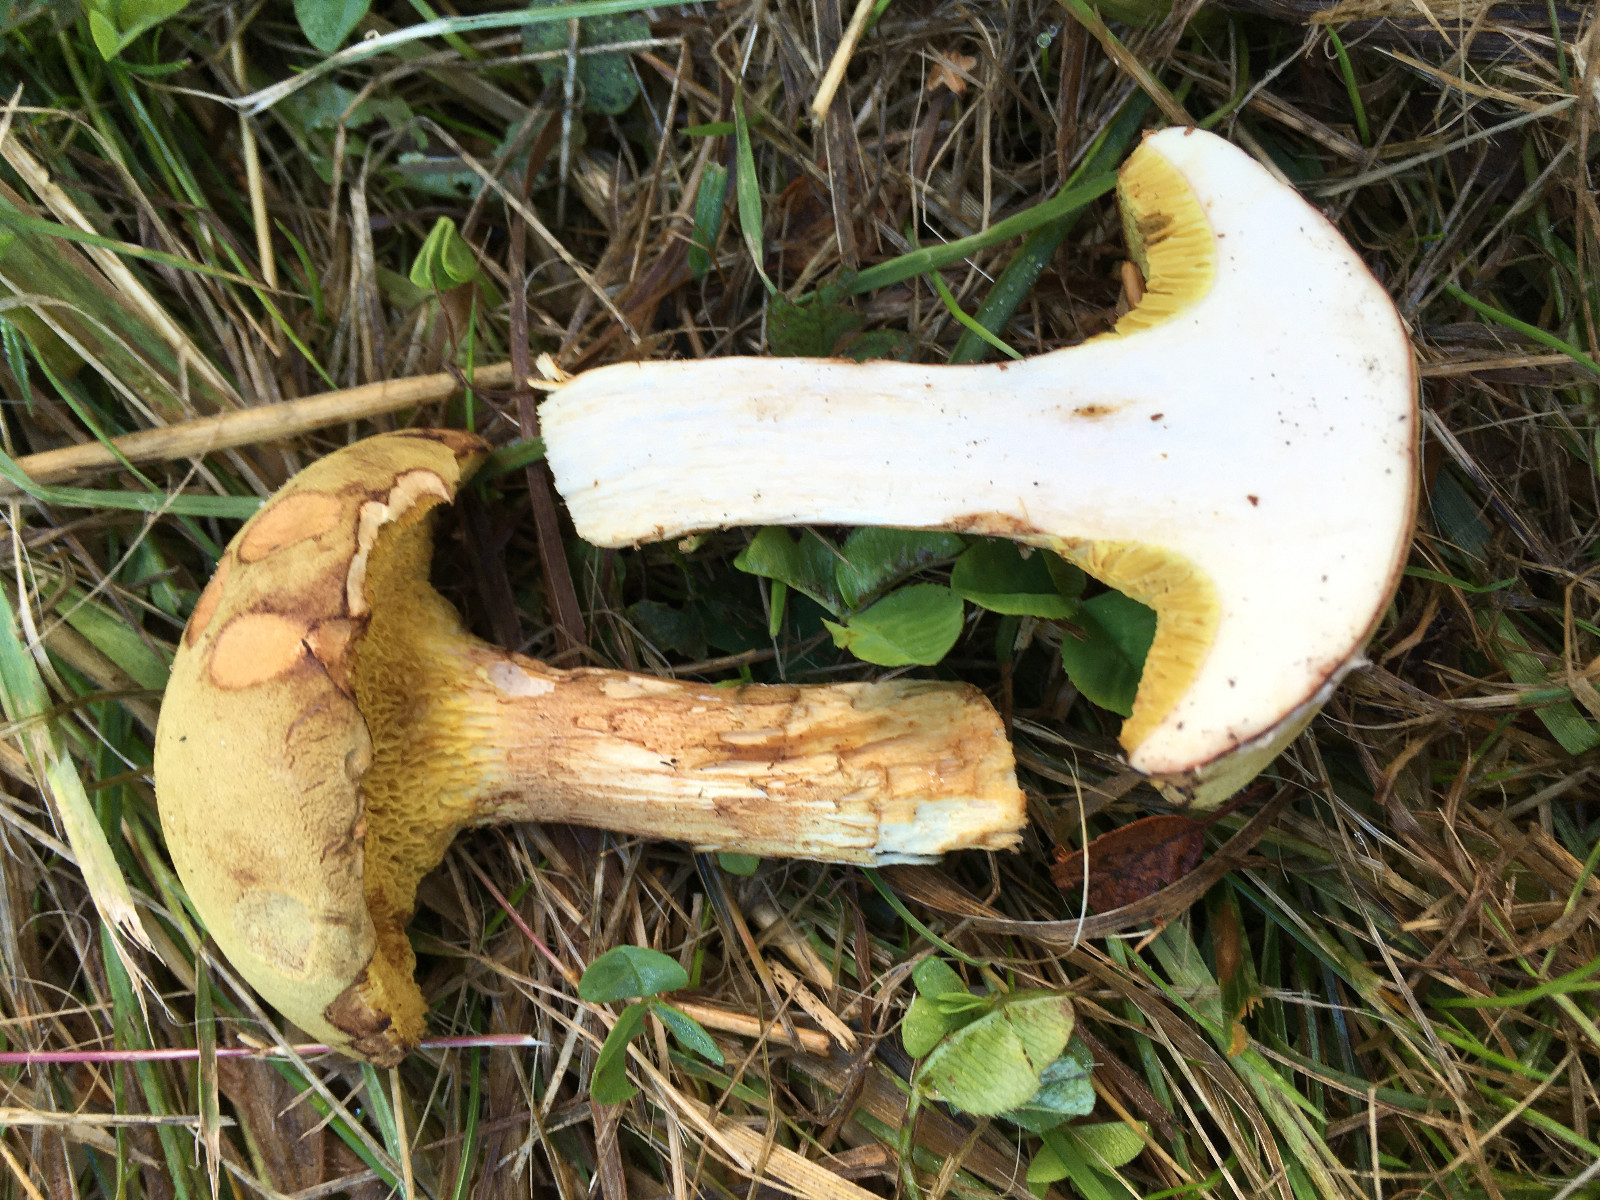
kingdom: Fungi
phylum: Basidiomycota
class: Agaricomycetes
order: Boletales
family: Boletaceae
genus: Xerocomus
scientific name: Xerocomus ferrugineus
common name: vaskeskinds-rørhat
